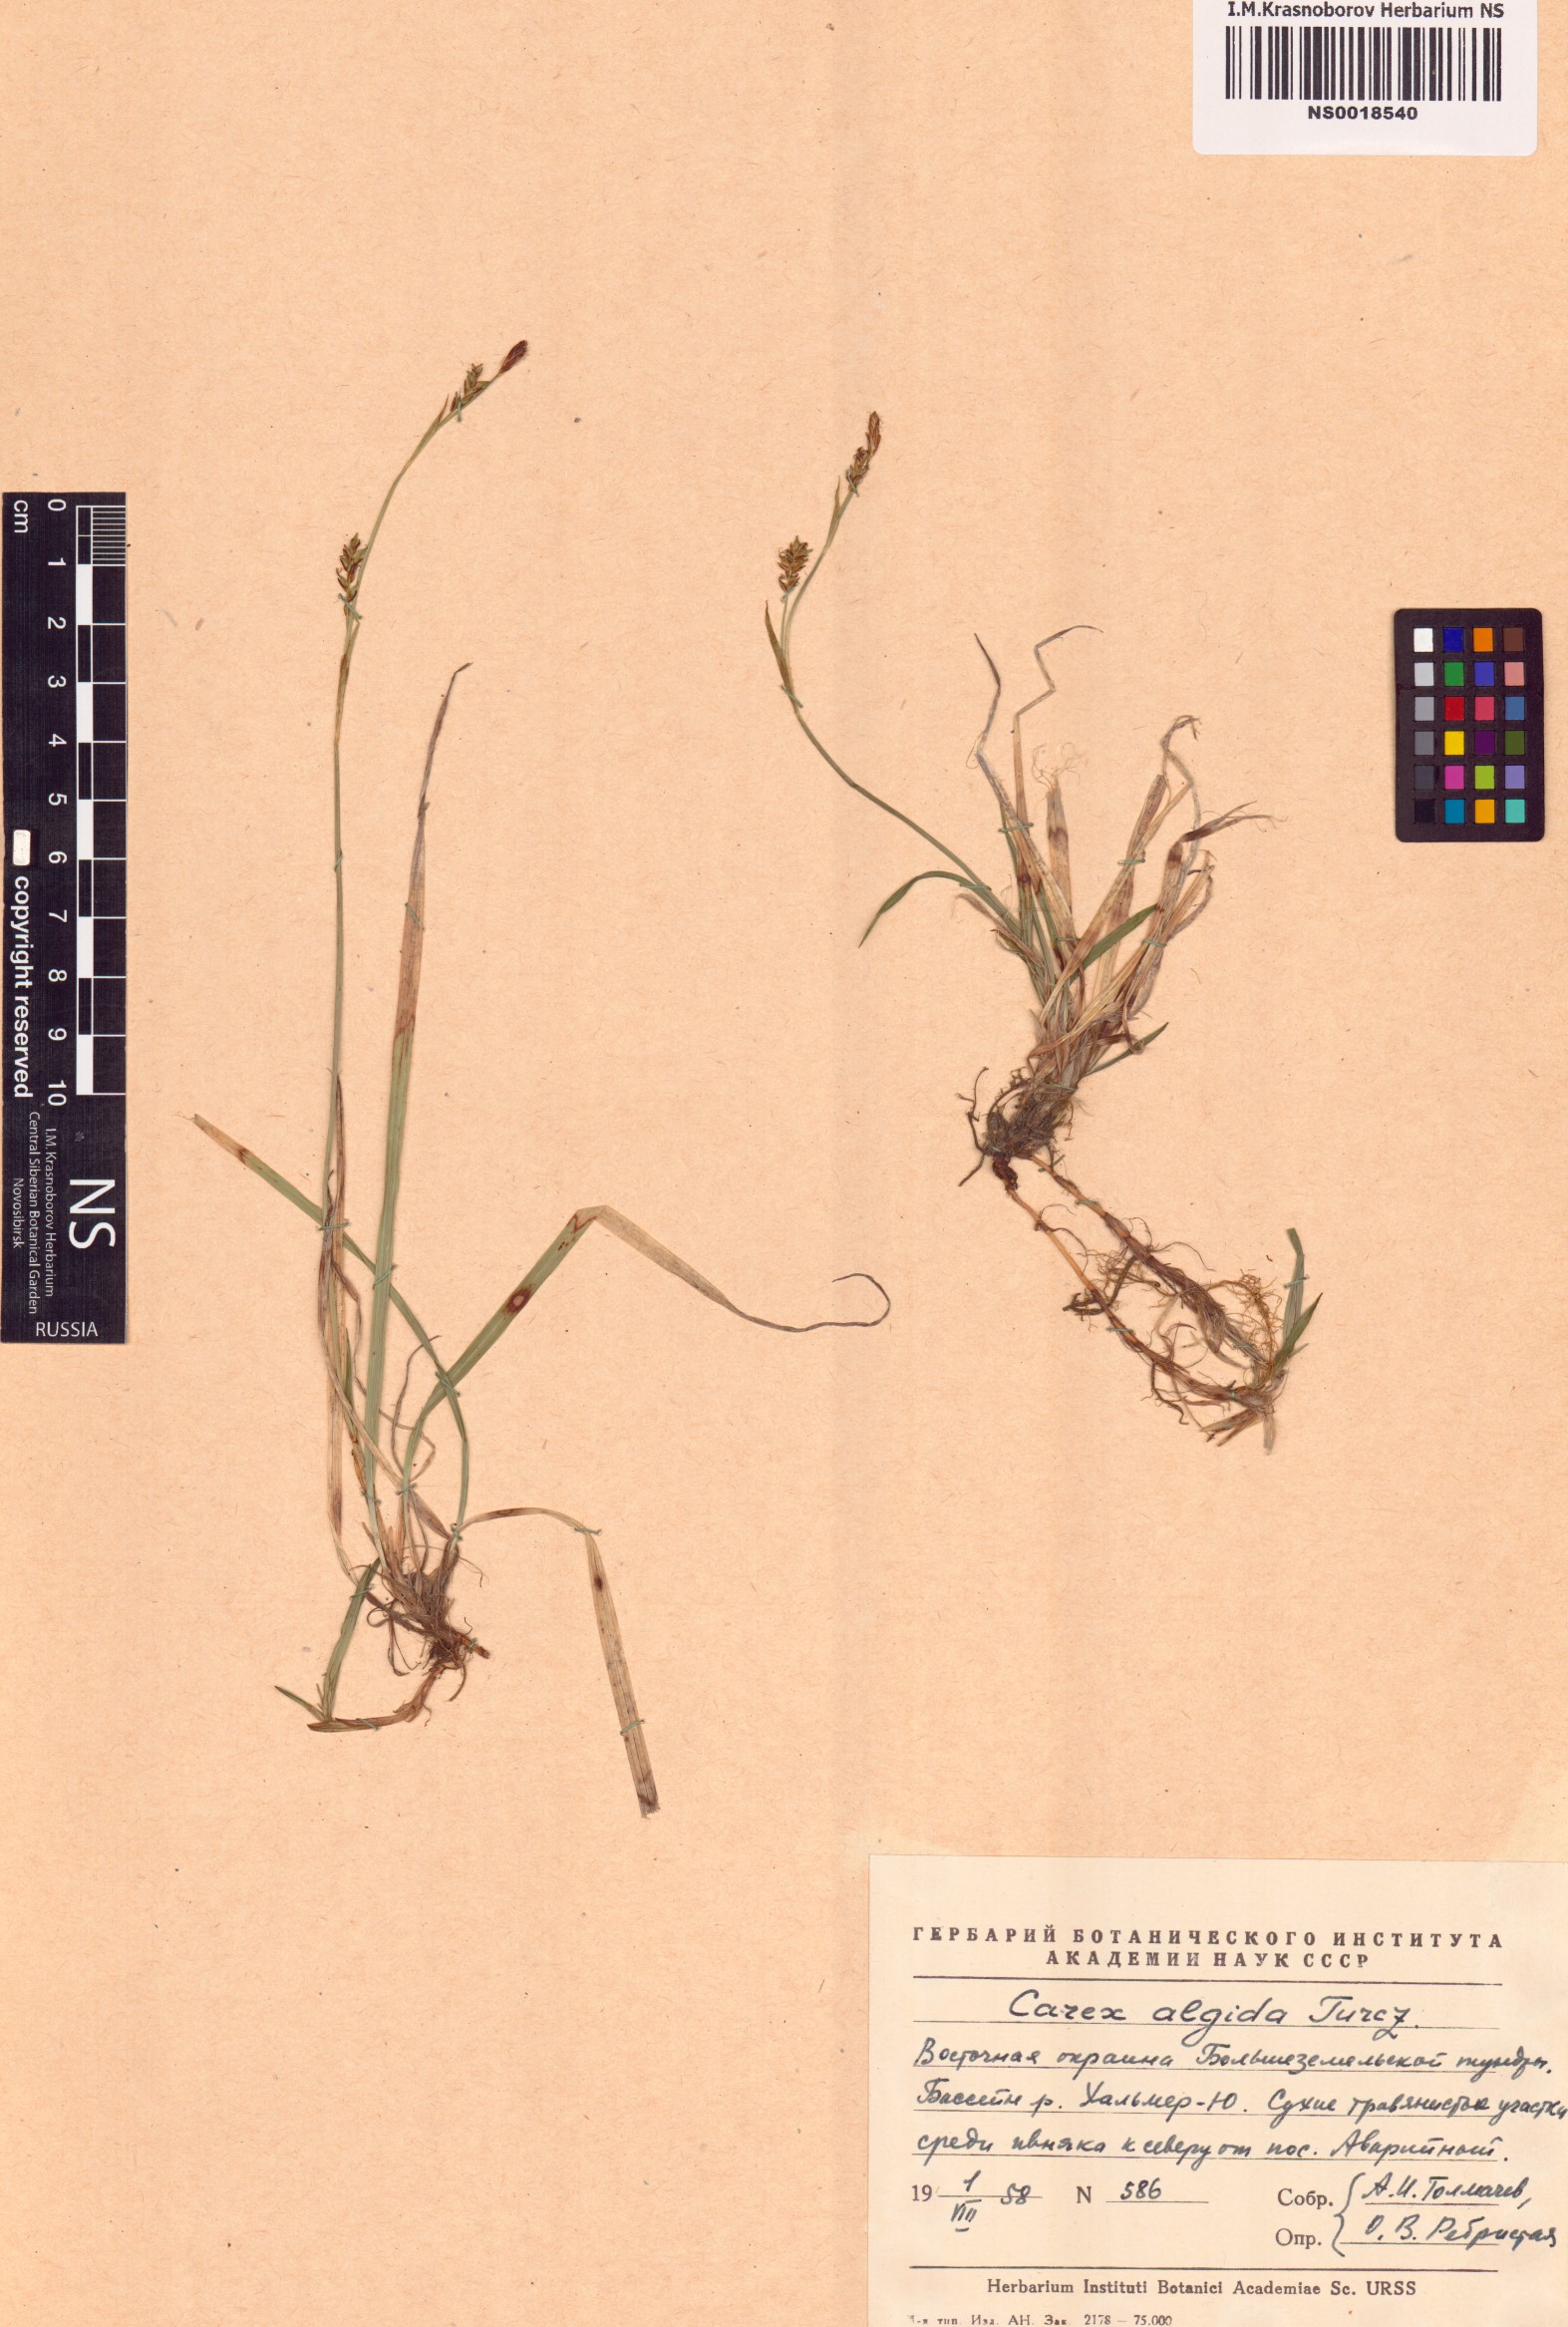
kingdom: Plantae
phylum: Tracheophyta
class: Liliopsida
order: Poales
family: Cyperaceae
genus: Carex
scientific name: Carex algida
